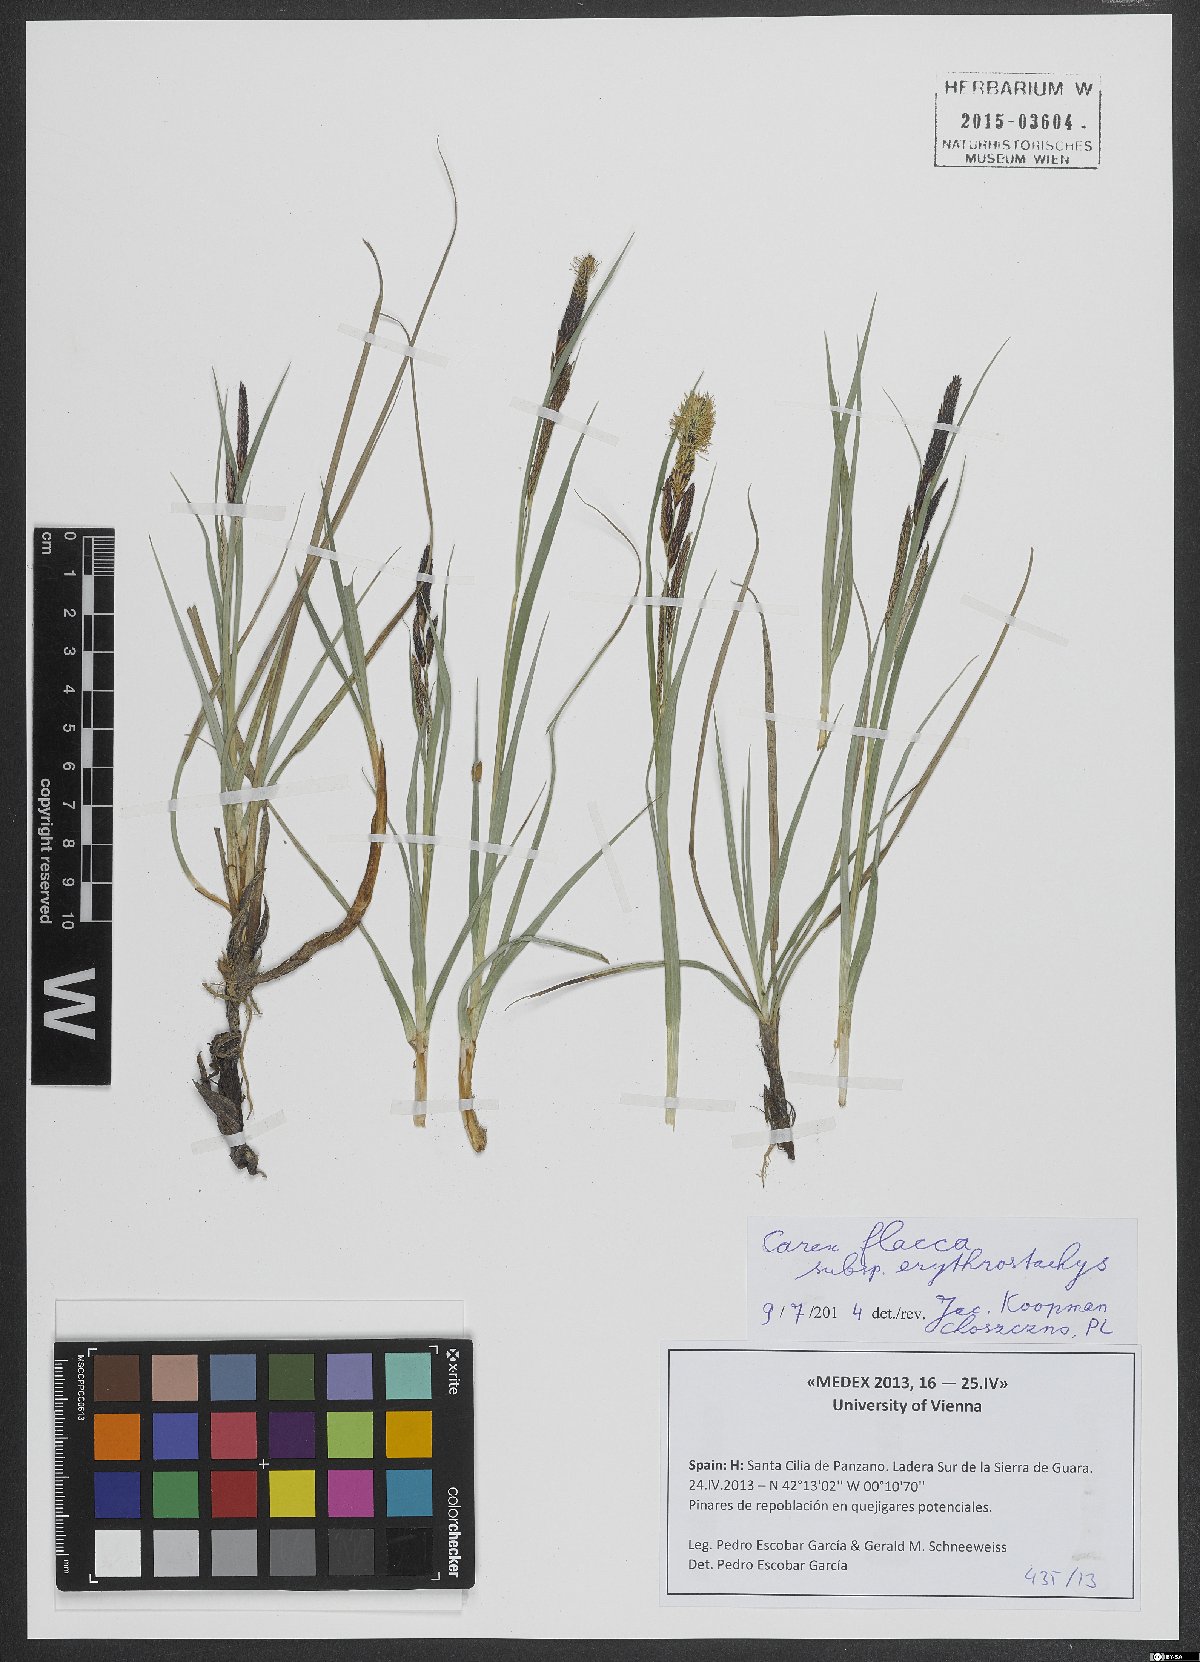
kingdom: Plantae
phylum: Tracheophyta
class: Liliopsida
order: Poales
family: Cyperaceae
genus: Carex
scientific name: Carex flacca
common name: Glaucous sedge
